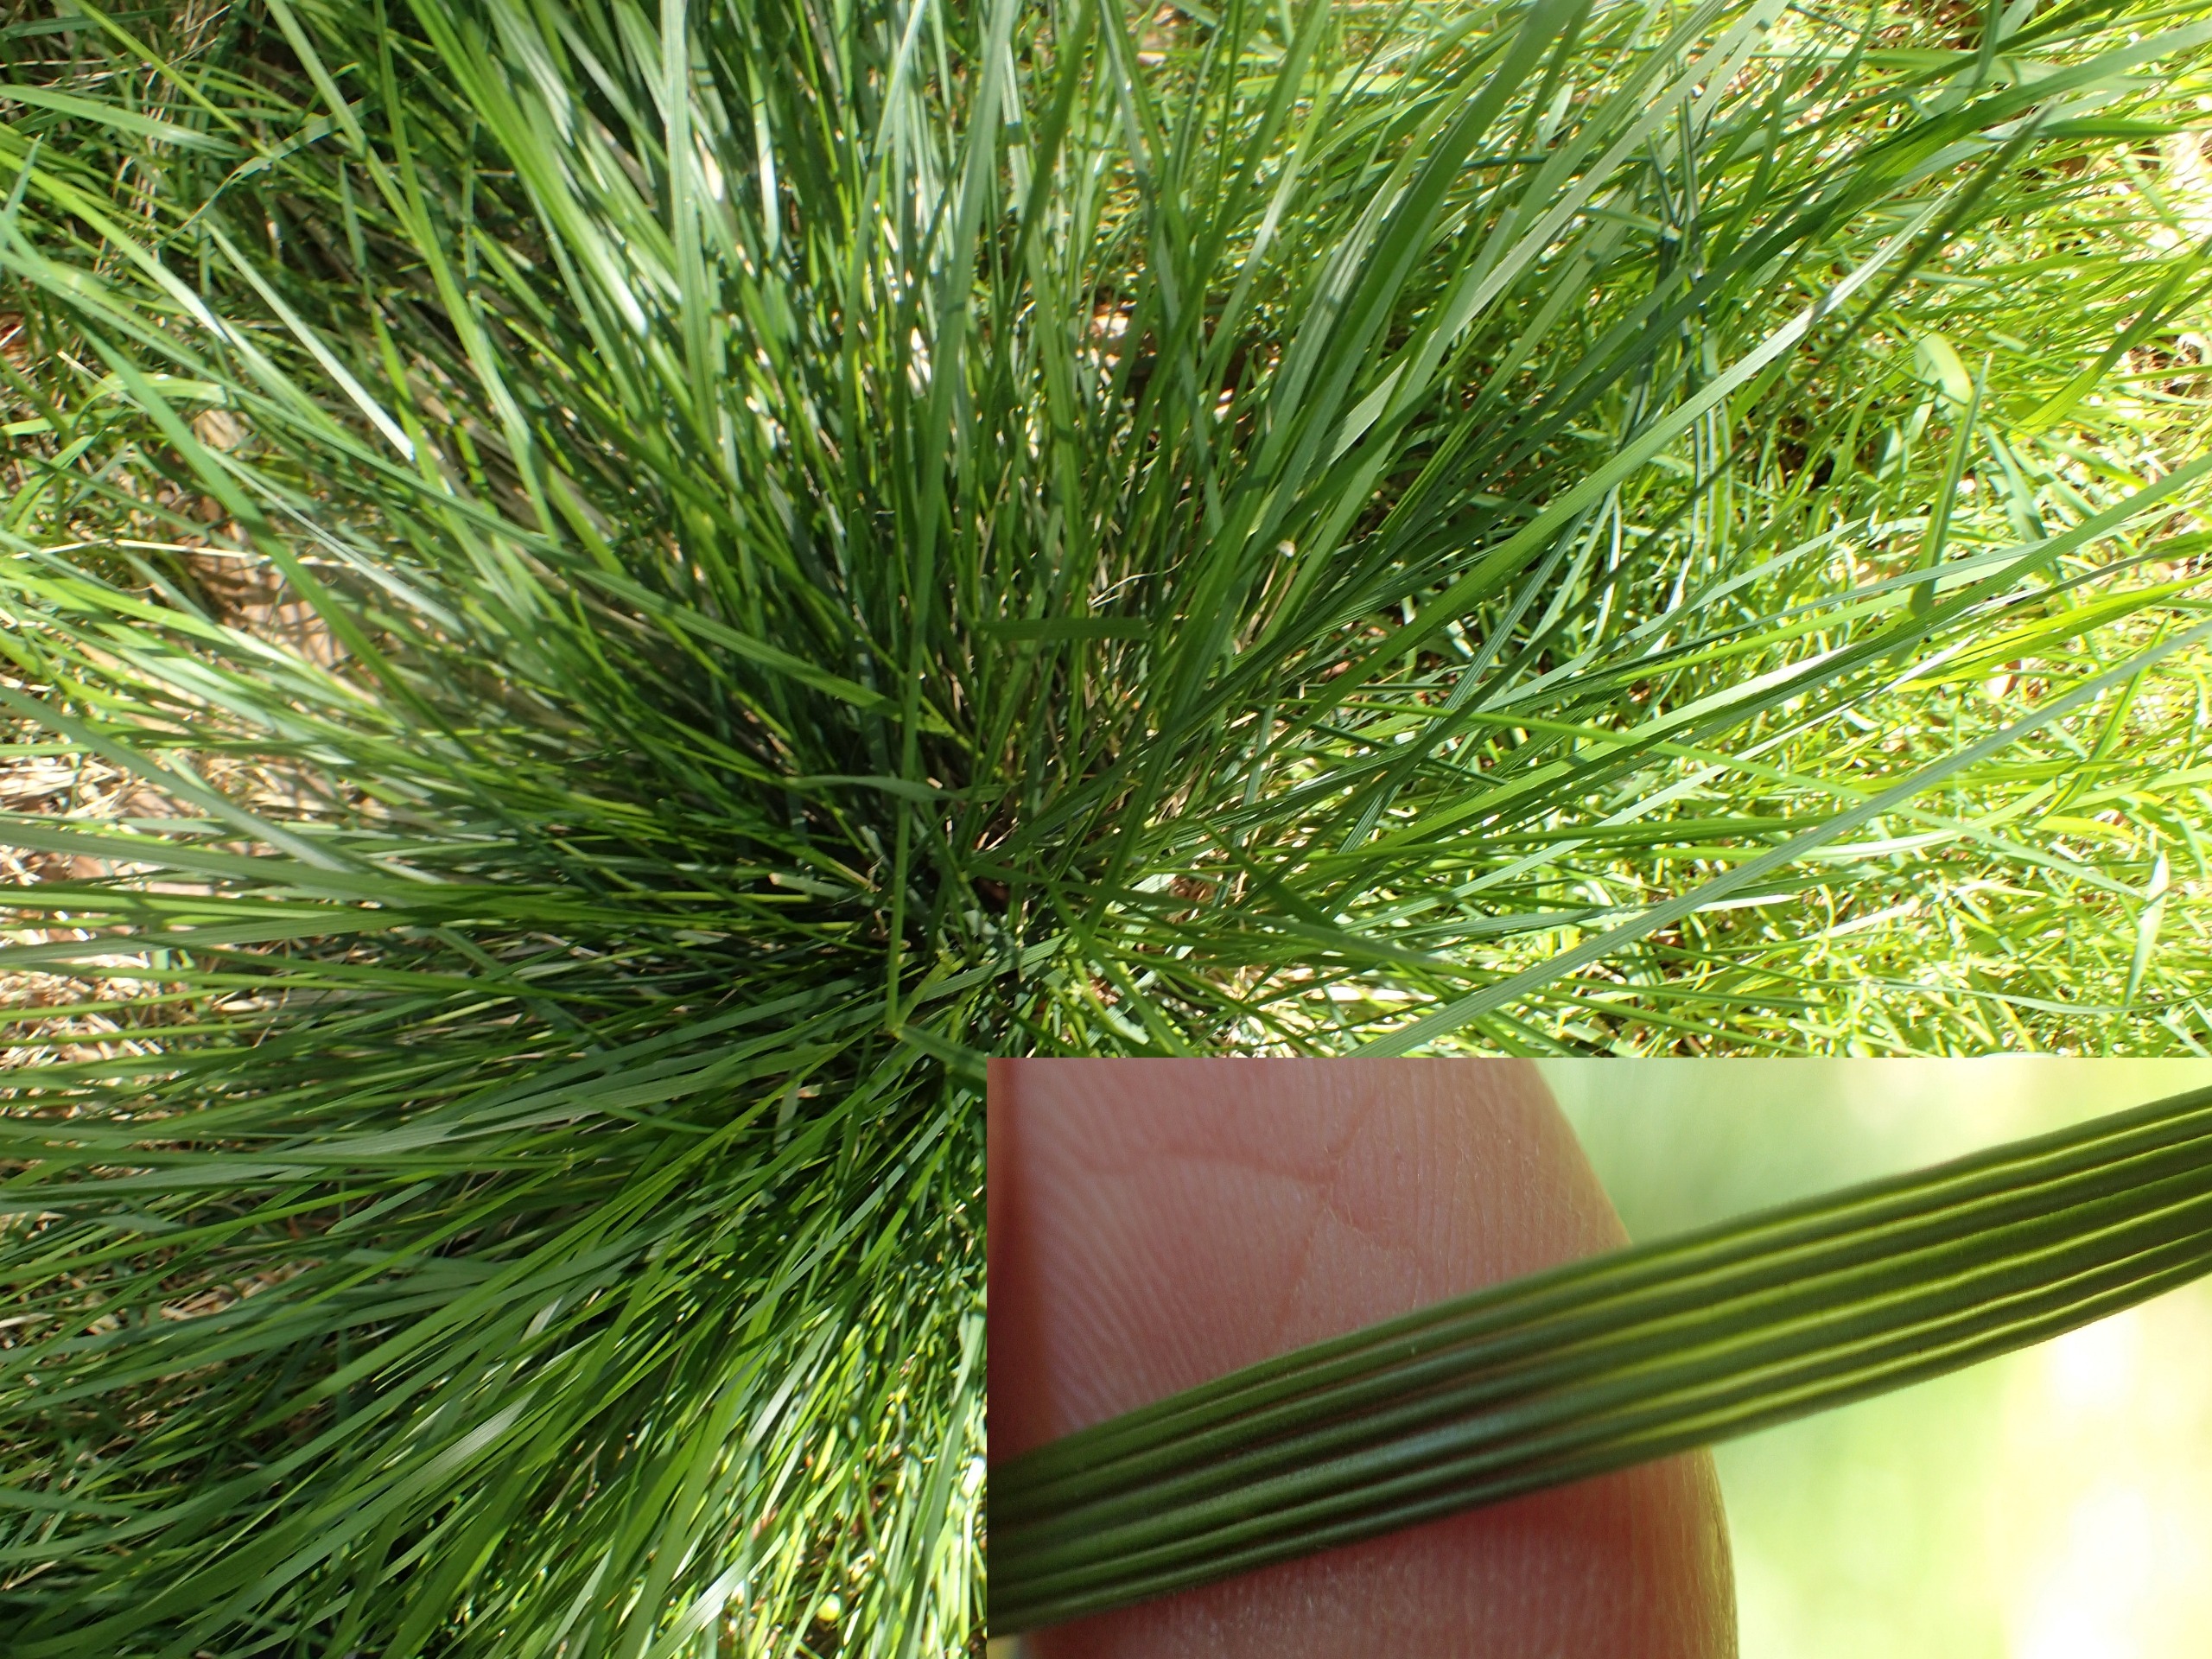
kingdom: Plantae
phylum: Tracheophyta
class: Liliopsida
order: Poales
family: Poaceae
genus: Deschampsia
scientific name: Deschampsia cespitosa
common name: Mose-bunke
